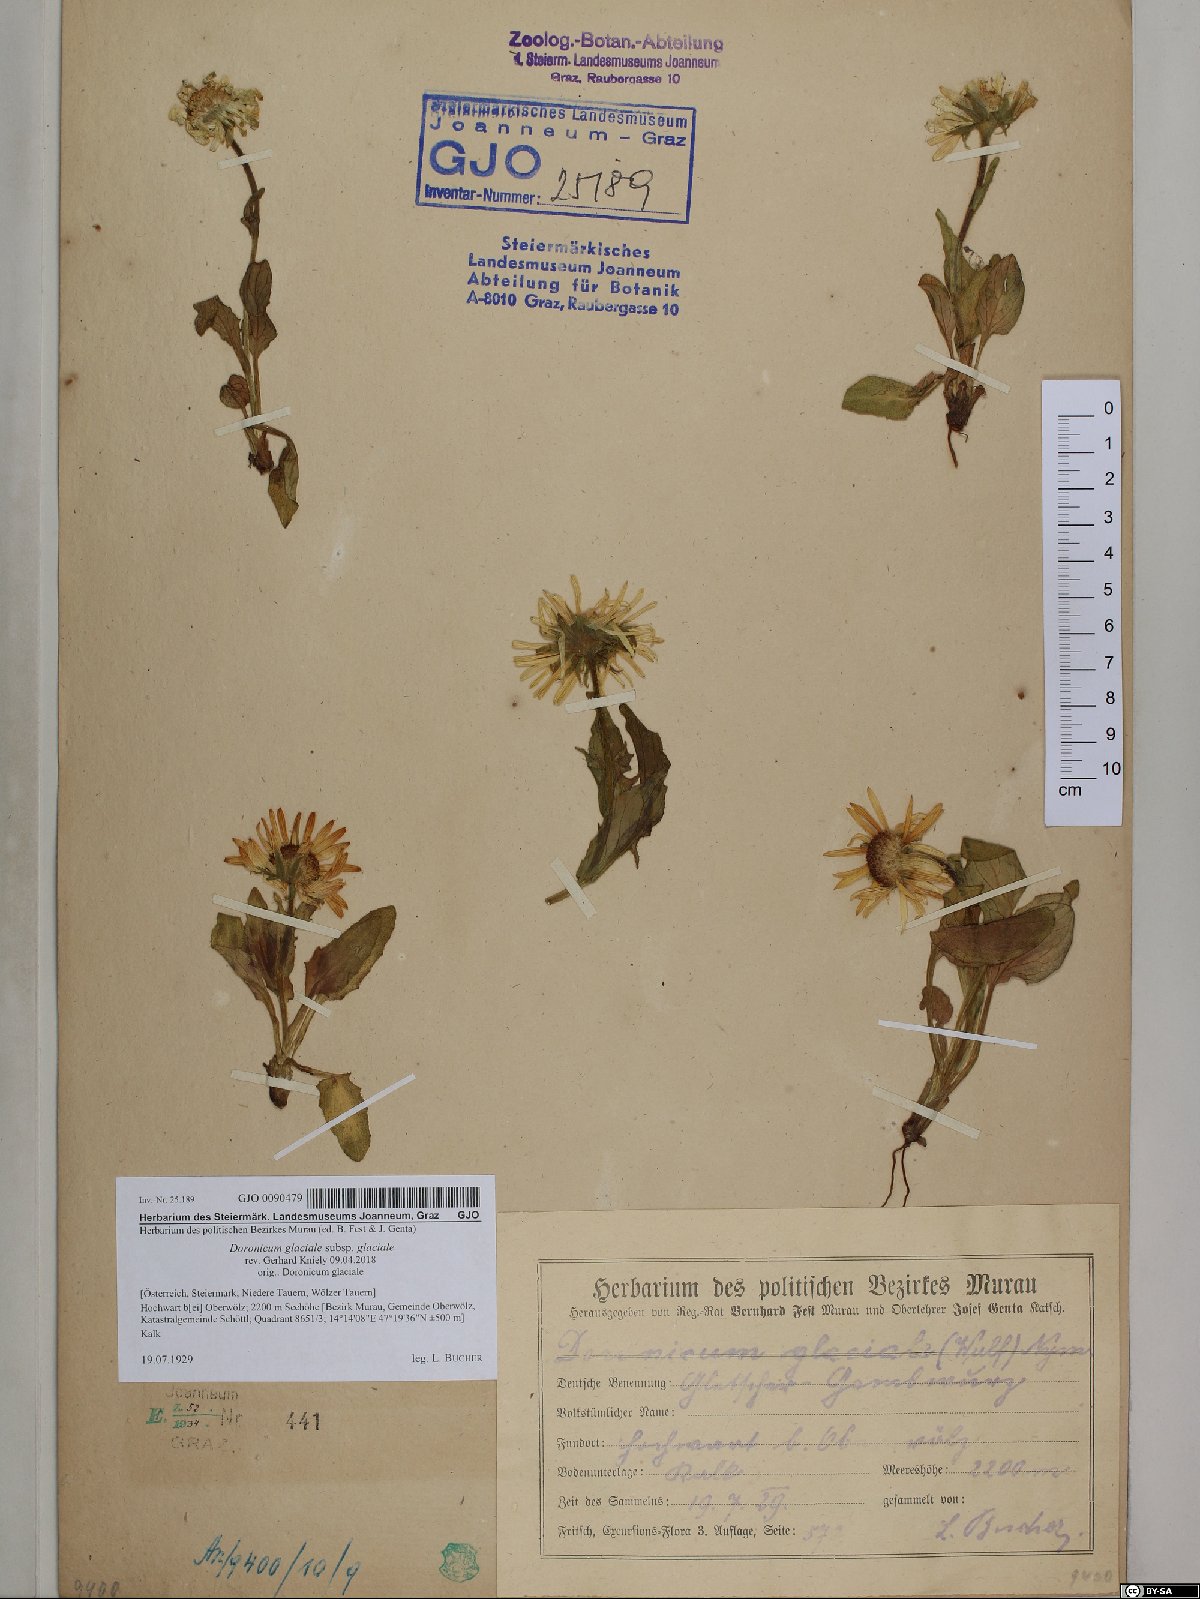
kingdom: Plantae
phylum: Tracheophyta
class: Magnoliopsida
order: Asterales
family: Asteraceae
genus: Doronicum
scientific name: Doronicum glaciale
